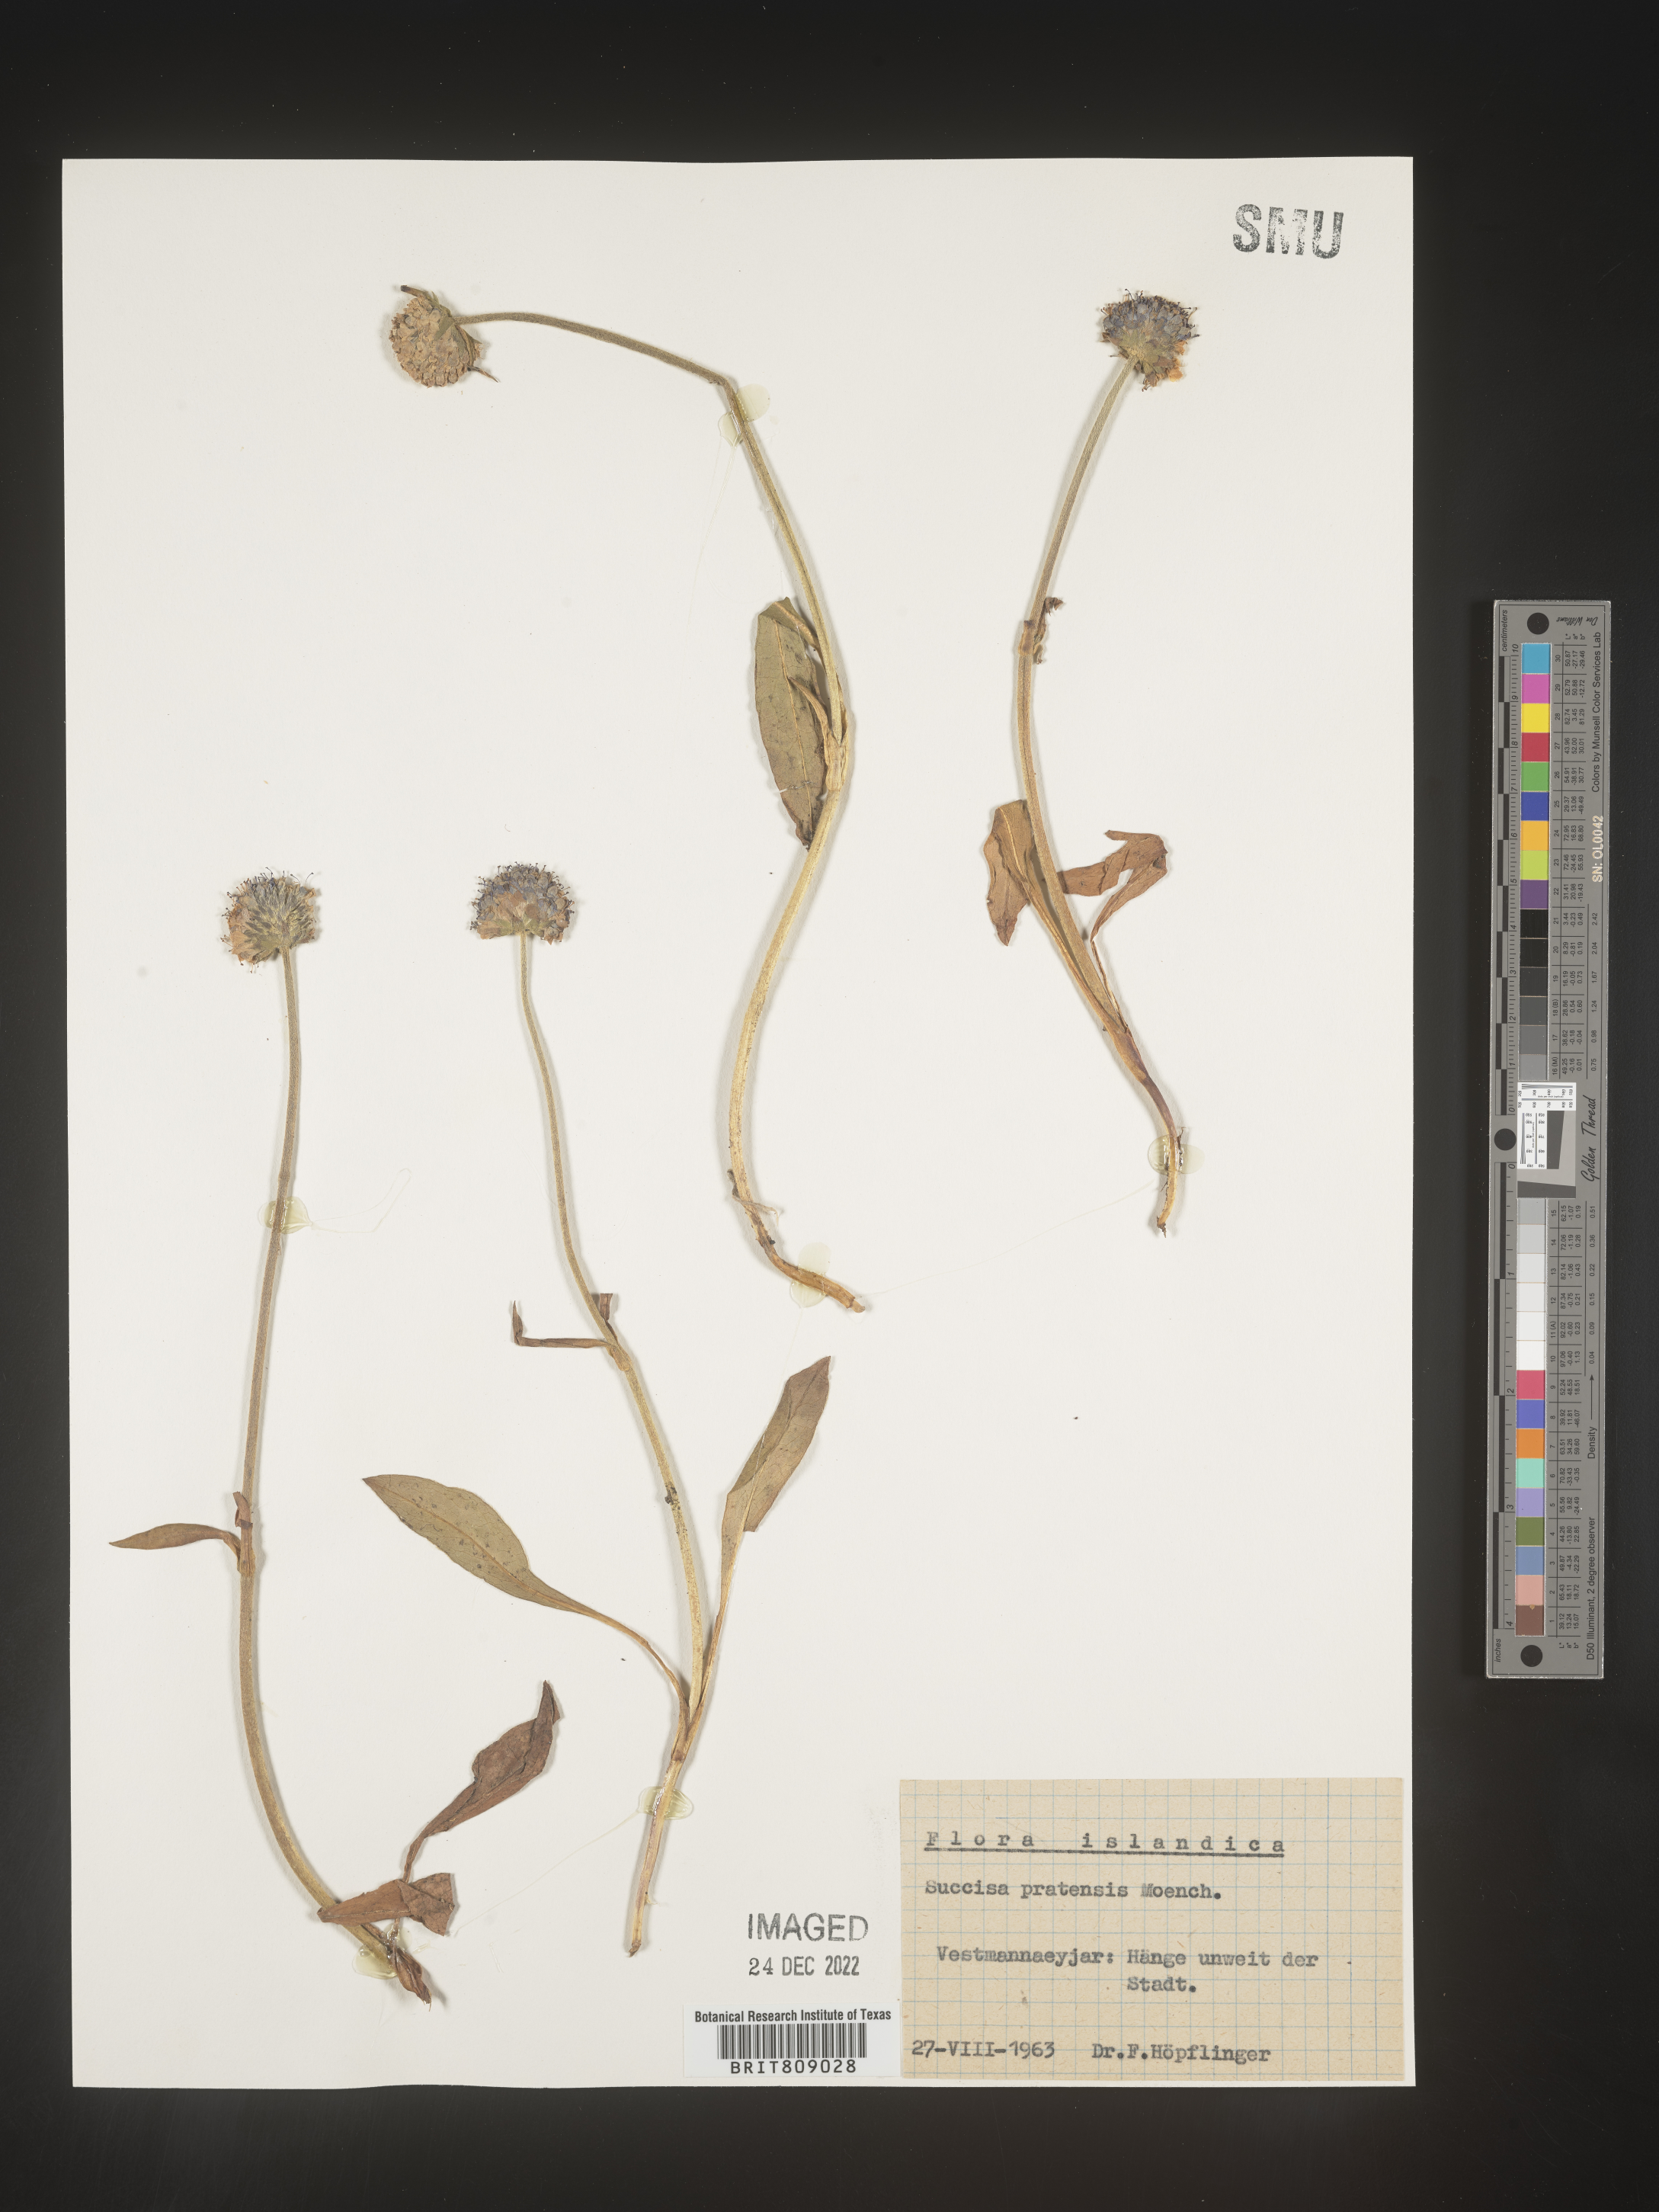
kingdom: Plantae
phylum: Tracheophyta
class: Magnoliopsida
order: Dipsacales
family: Caprifoliaceae
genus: Succisa
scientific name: Succisa
